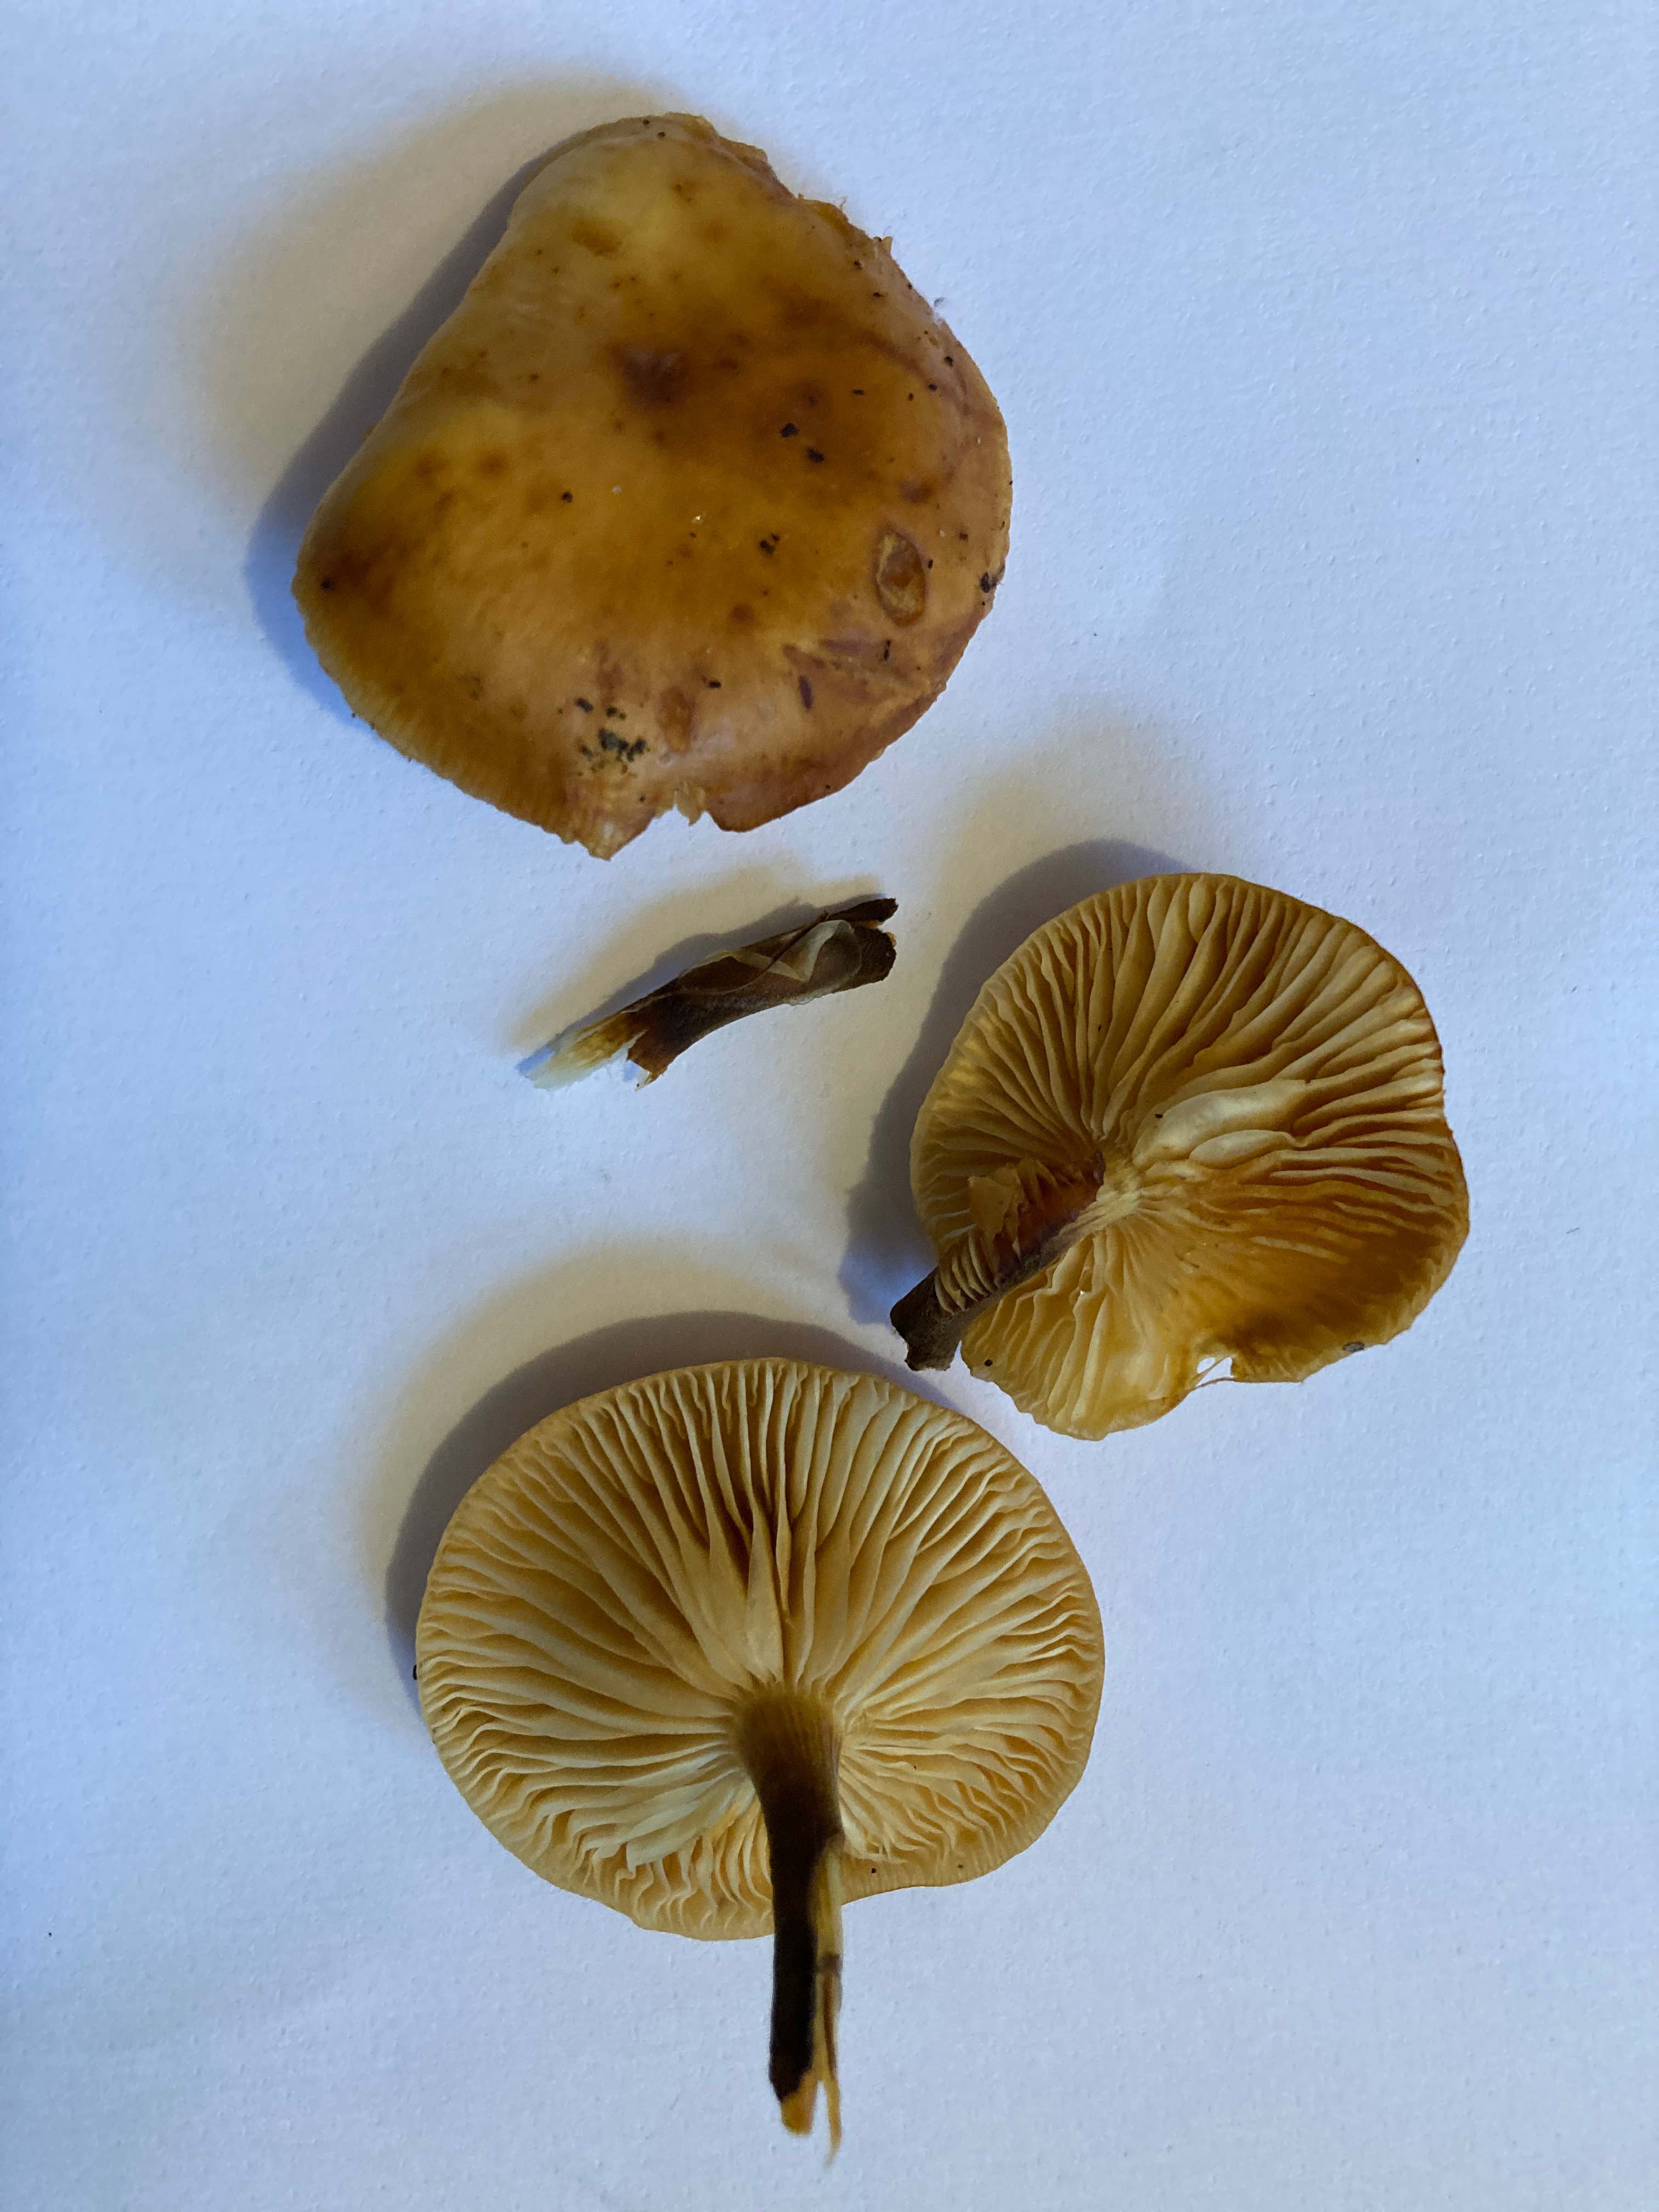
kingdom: Fungi
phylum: Basidiomycota
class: Agaricomycetes
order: Agaricales
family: Physalacriaceae
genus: Flammulina
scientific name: Flammulina
